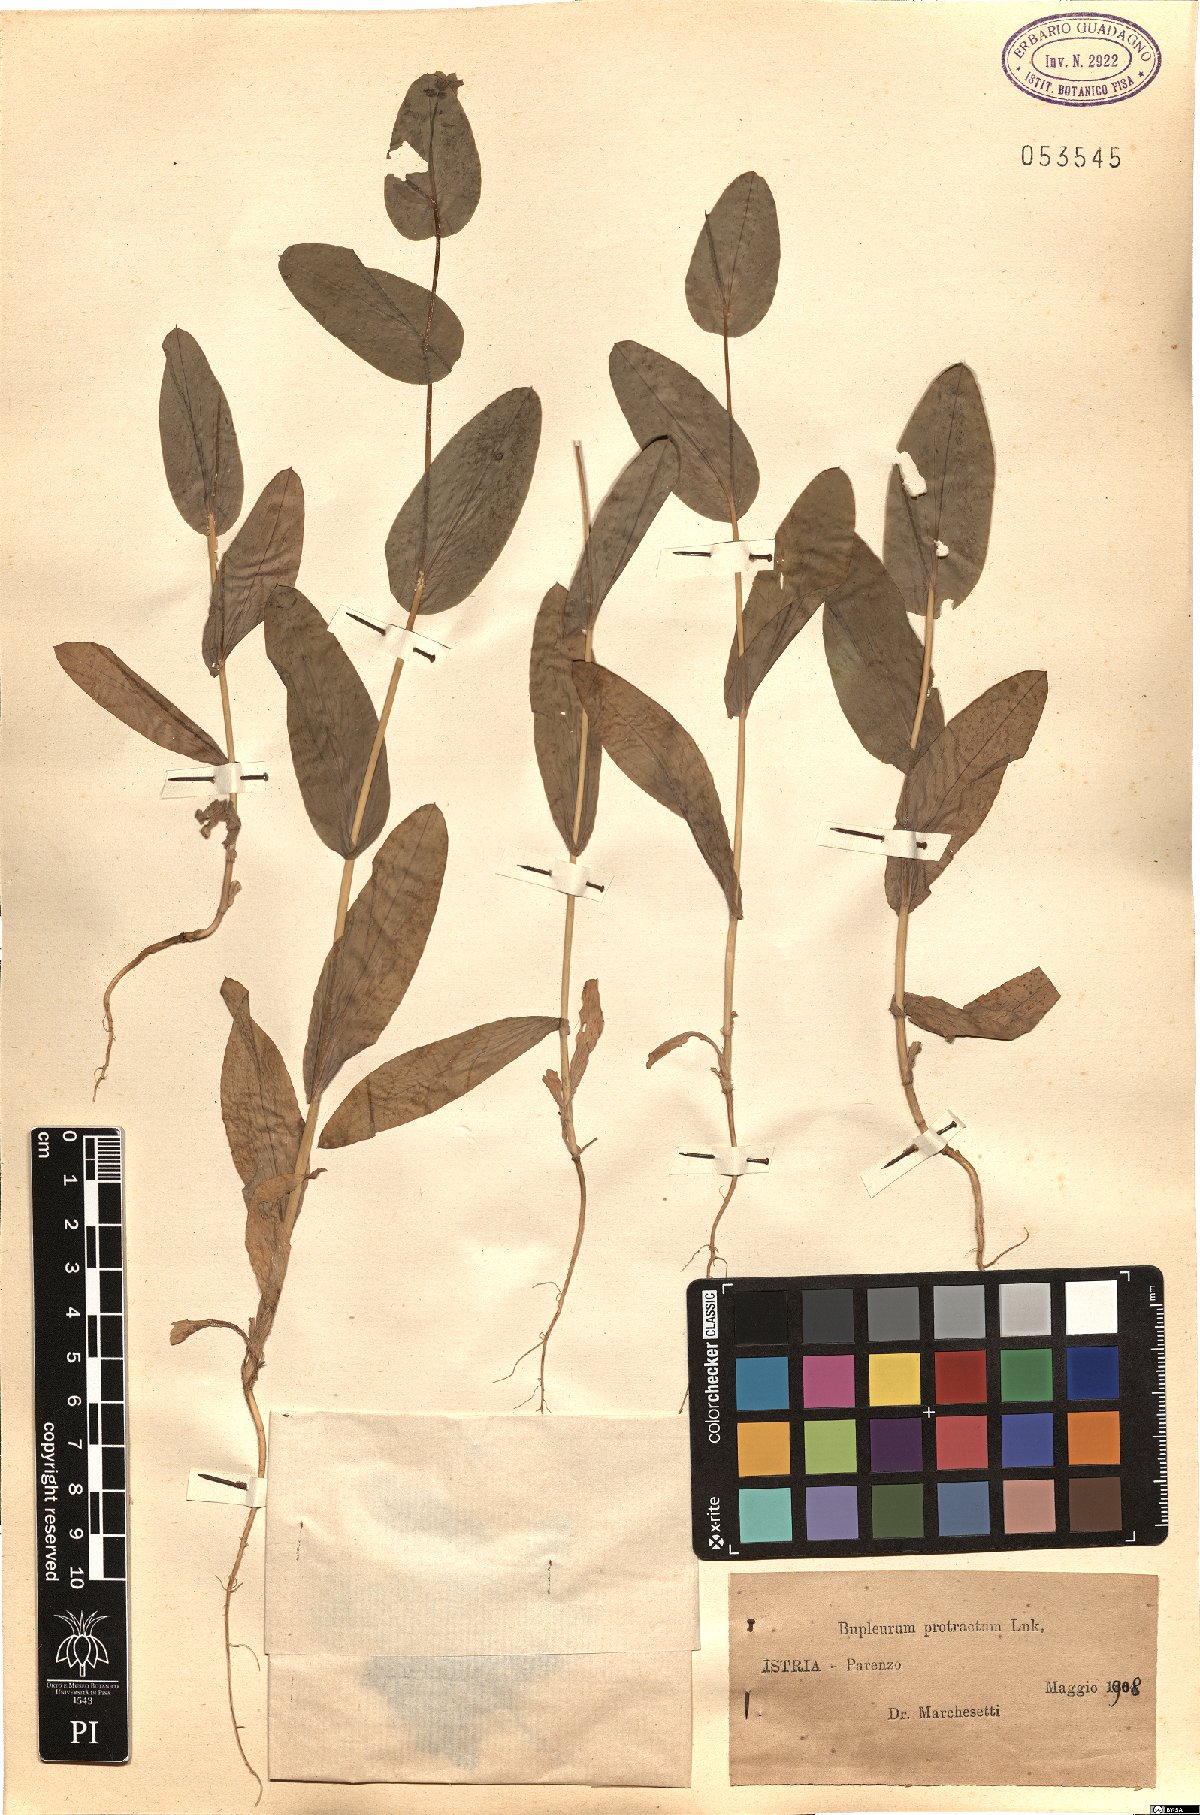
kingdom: Plantae
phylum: Tracheophyta
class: Magnoliopsida
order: Apiales
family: Apiaceae
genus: Bupleurum
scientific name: Bupleurum subovatum
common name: False thorow-wax
